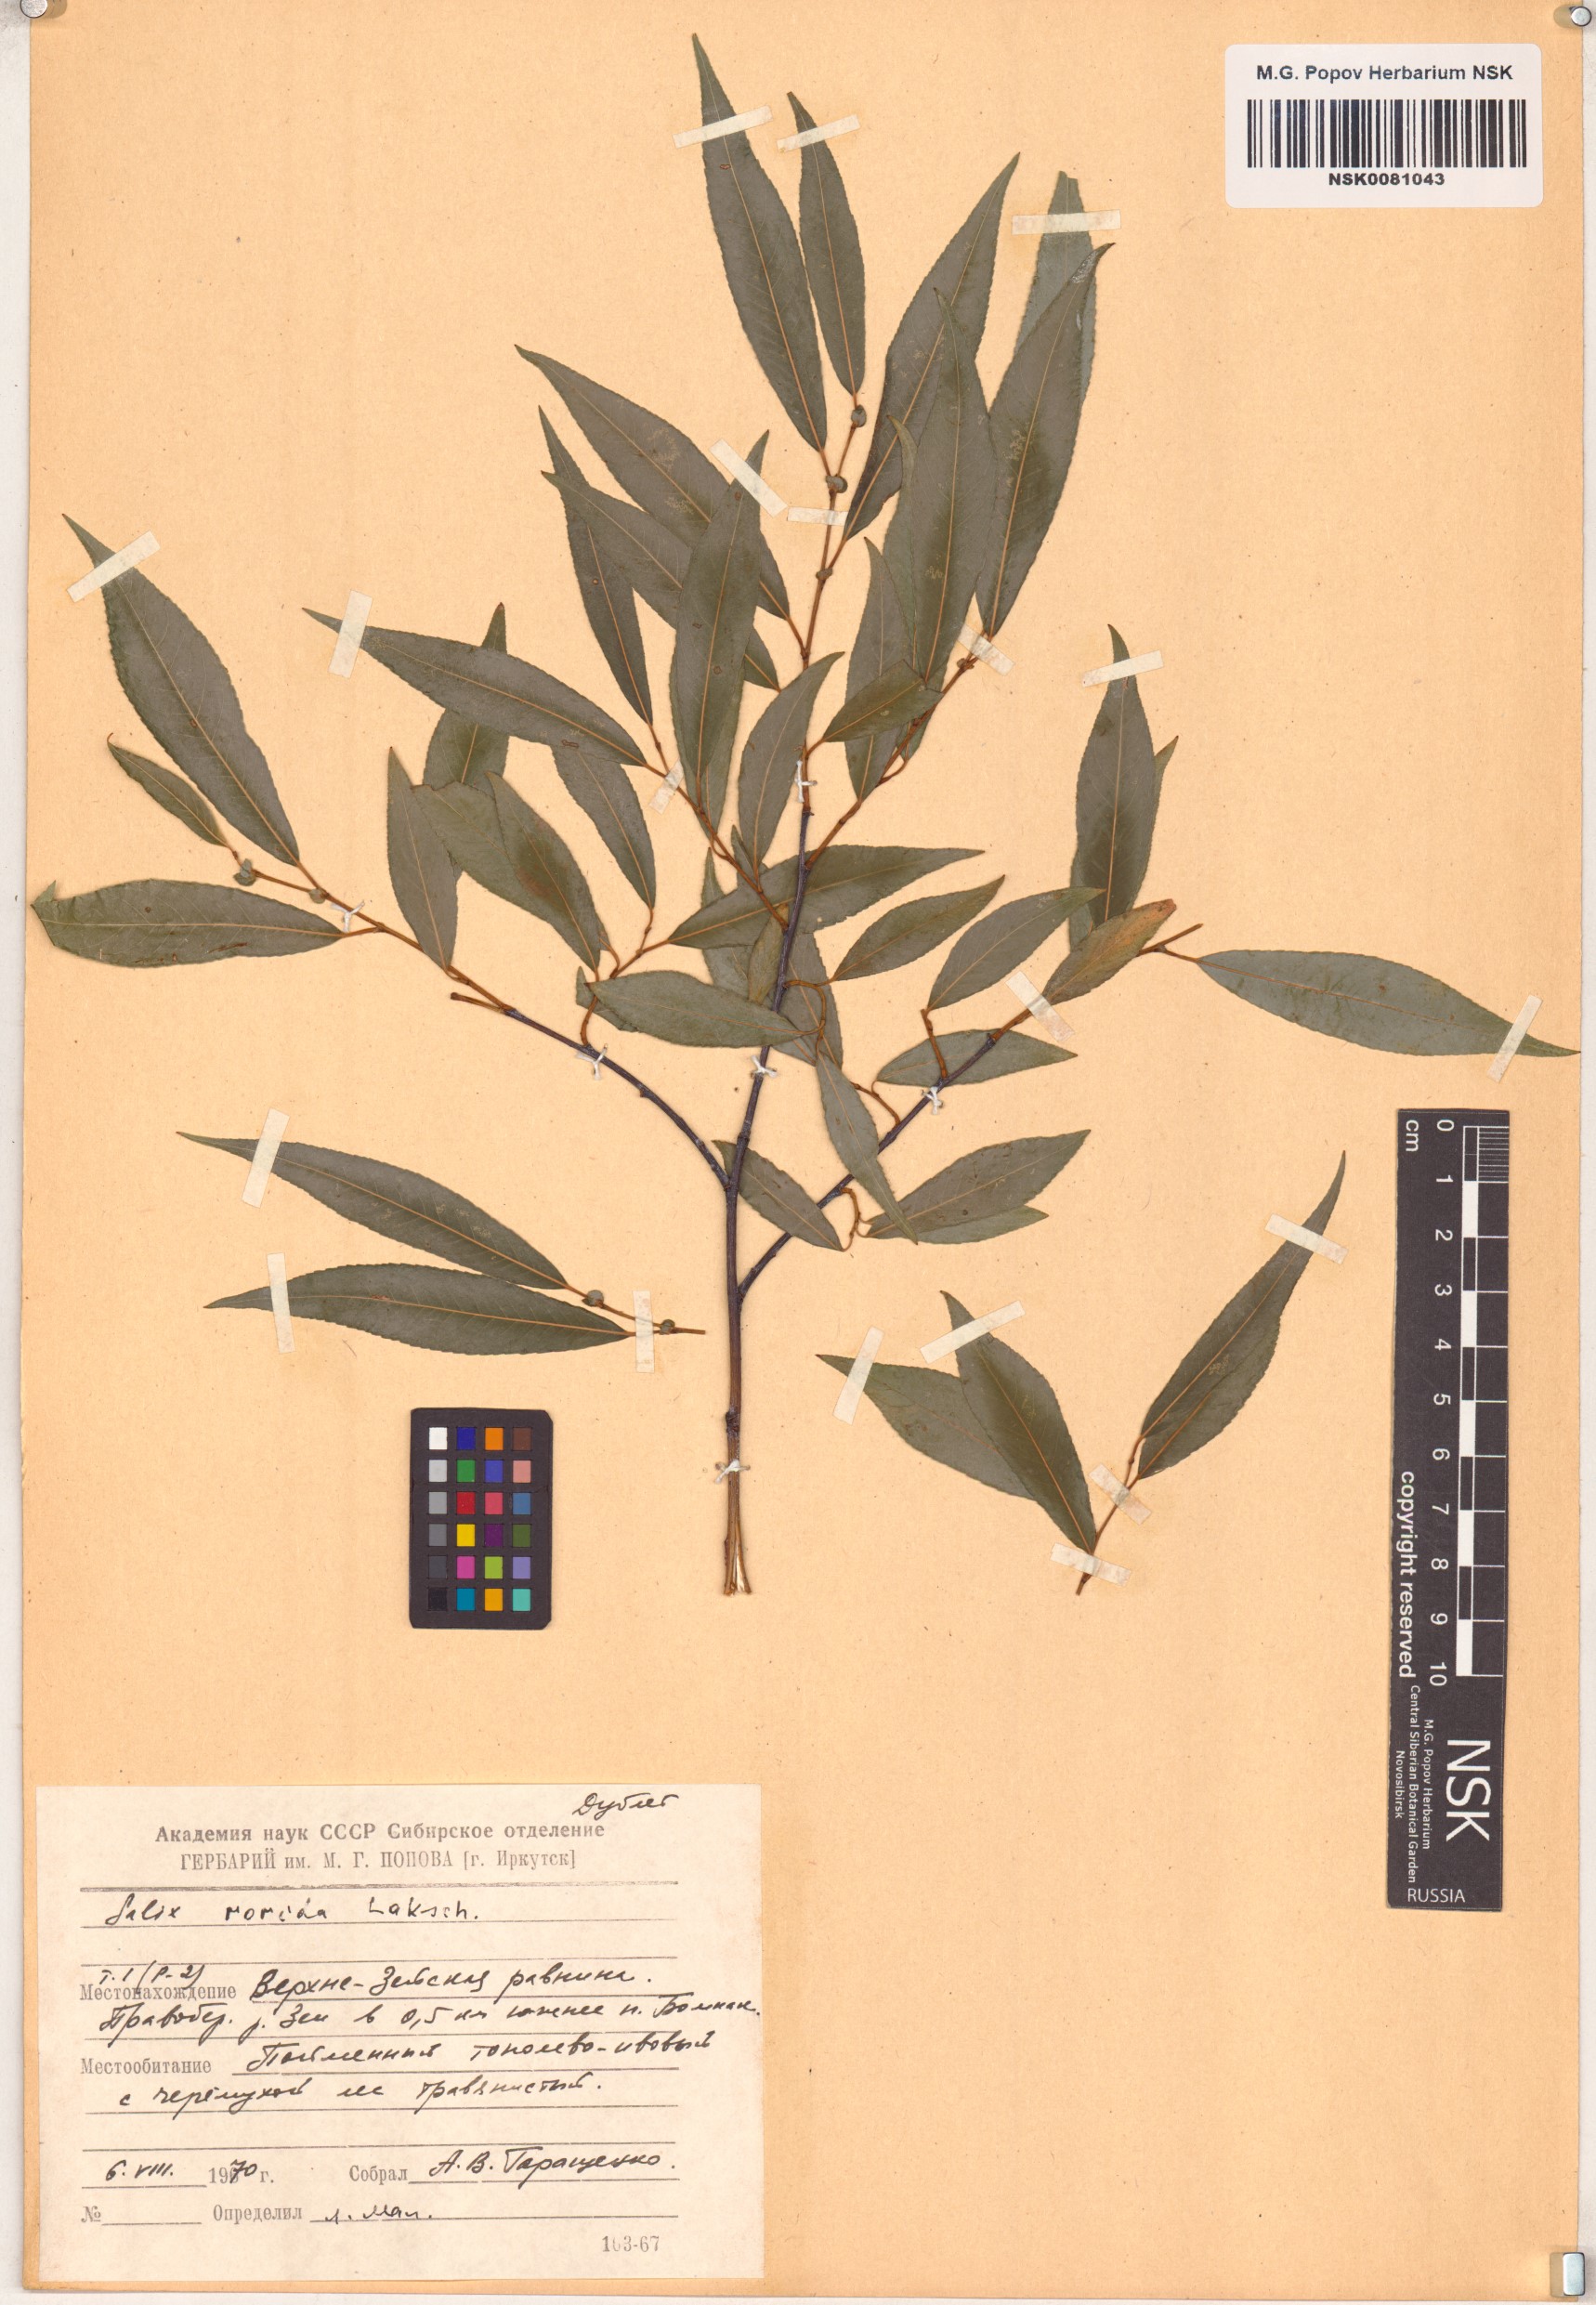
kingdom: Plantae
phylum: Tracheophyta
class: Magnoliopsida
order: Malpighiales
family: Salicaceae
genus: Salix
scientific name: Salix rorida
